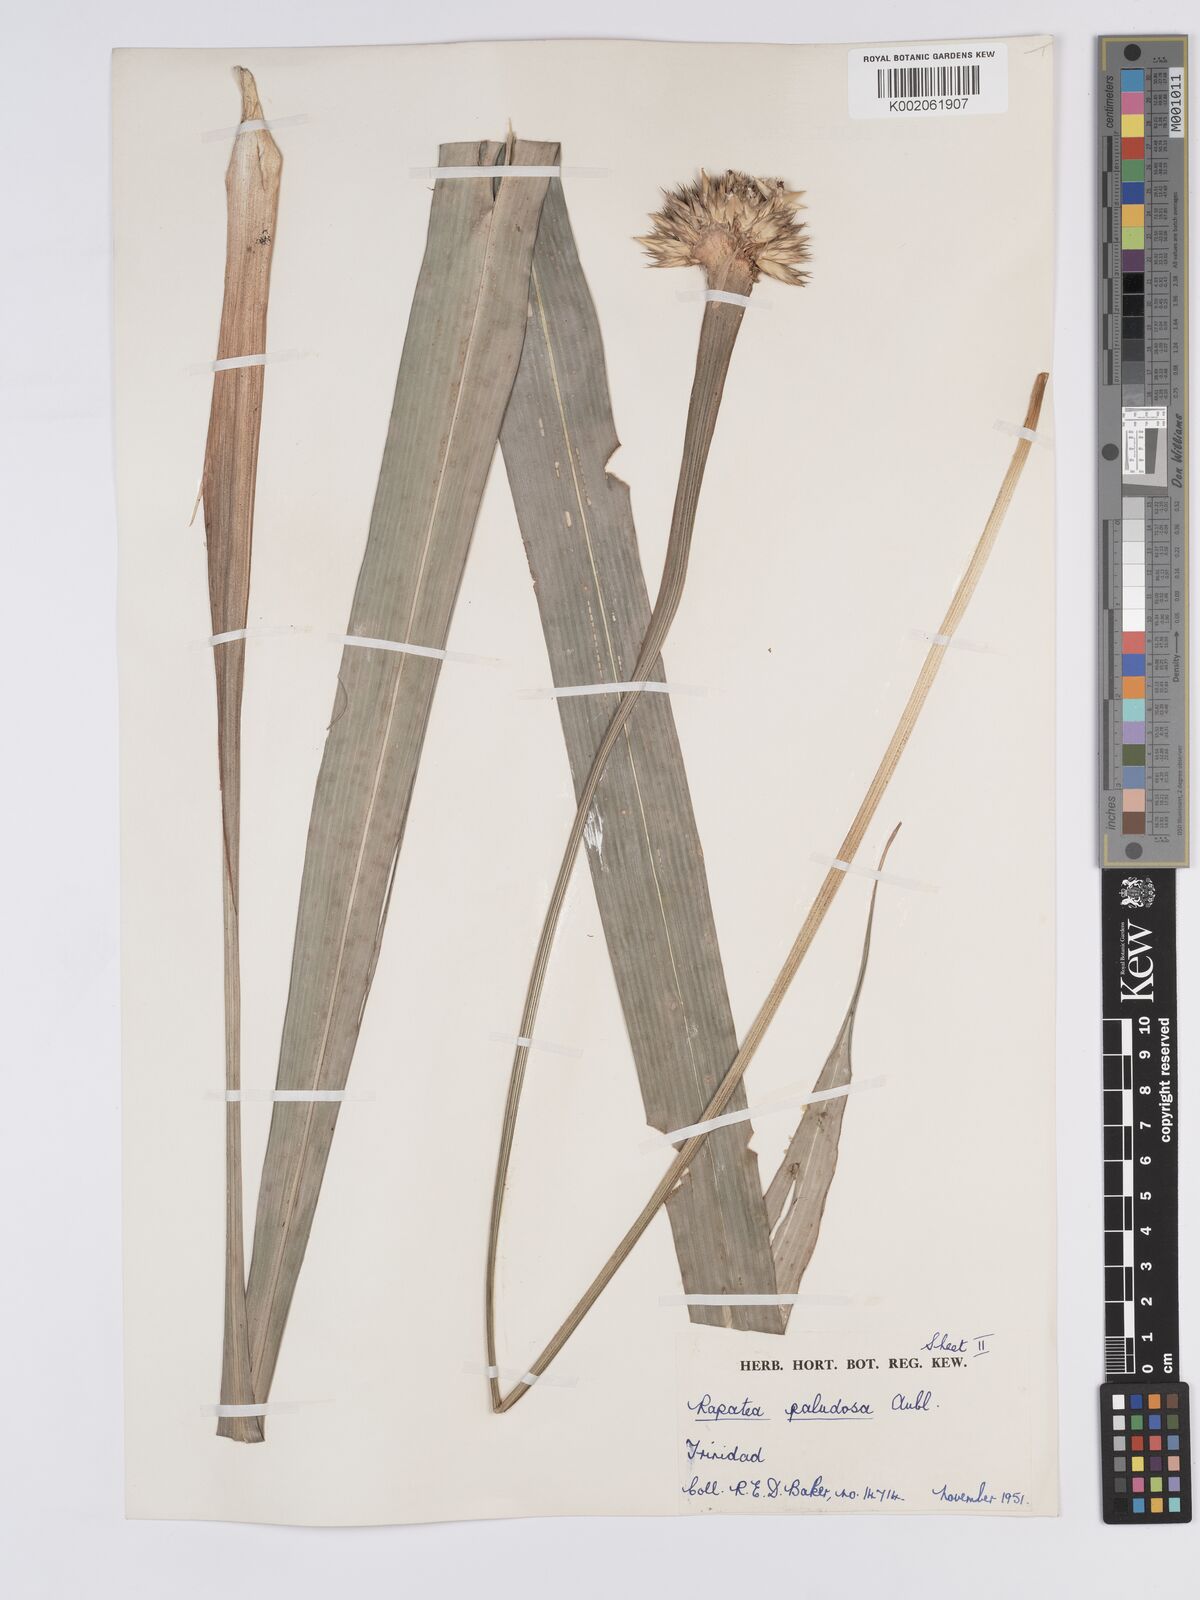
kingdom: Plantae
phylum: Tracheophyta
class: Liliopsida
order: Poales
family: Rapateaceae
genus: Rapatea
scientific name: Rapatea paludosa
